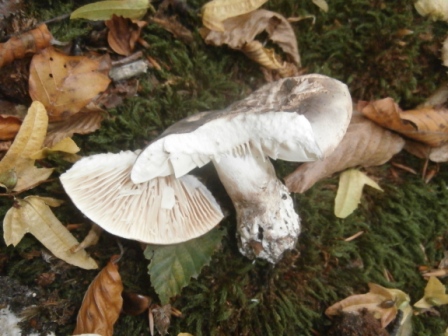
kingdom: Fungi
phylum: Basidiomycota
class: Agaricomycetes
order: Russulales
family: Russulaceae
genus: Russula
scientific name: Russula adusta
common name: sværtende skørhat
